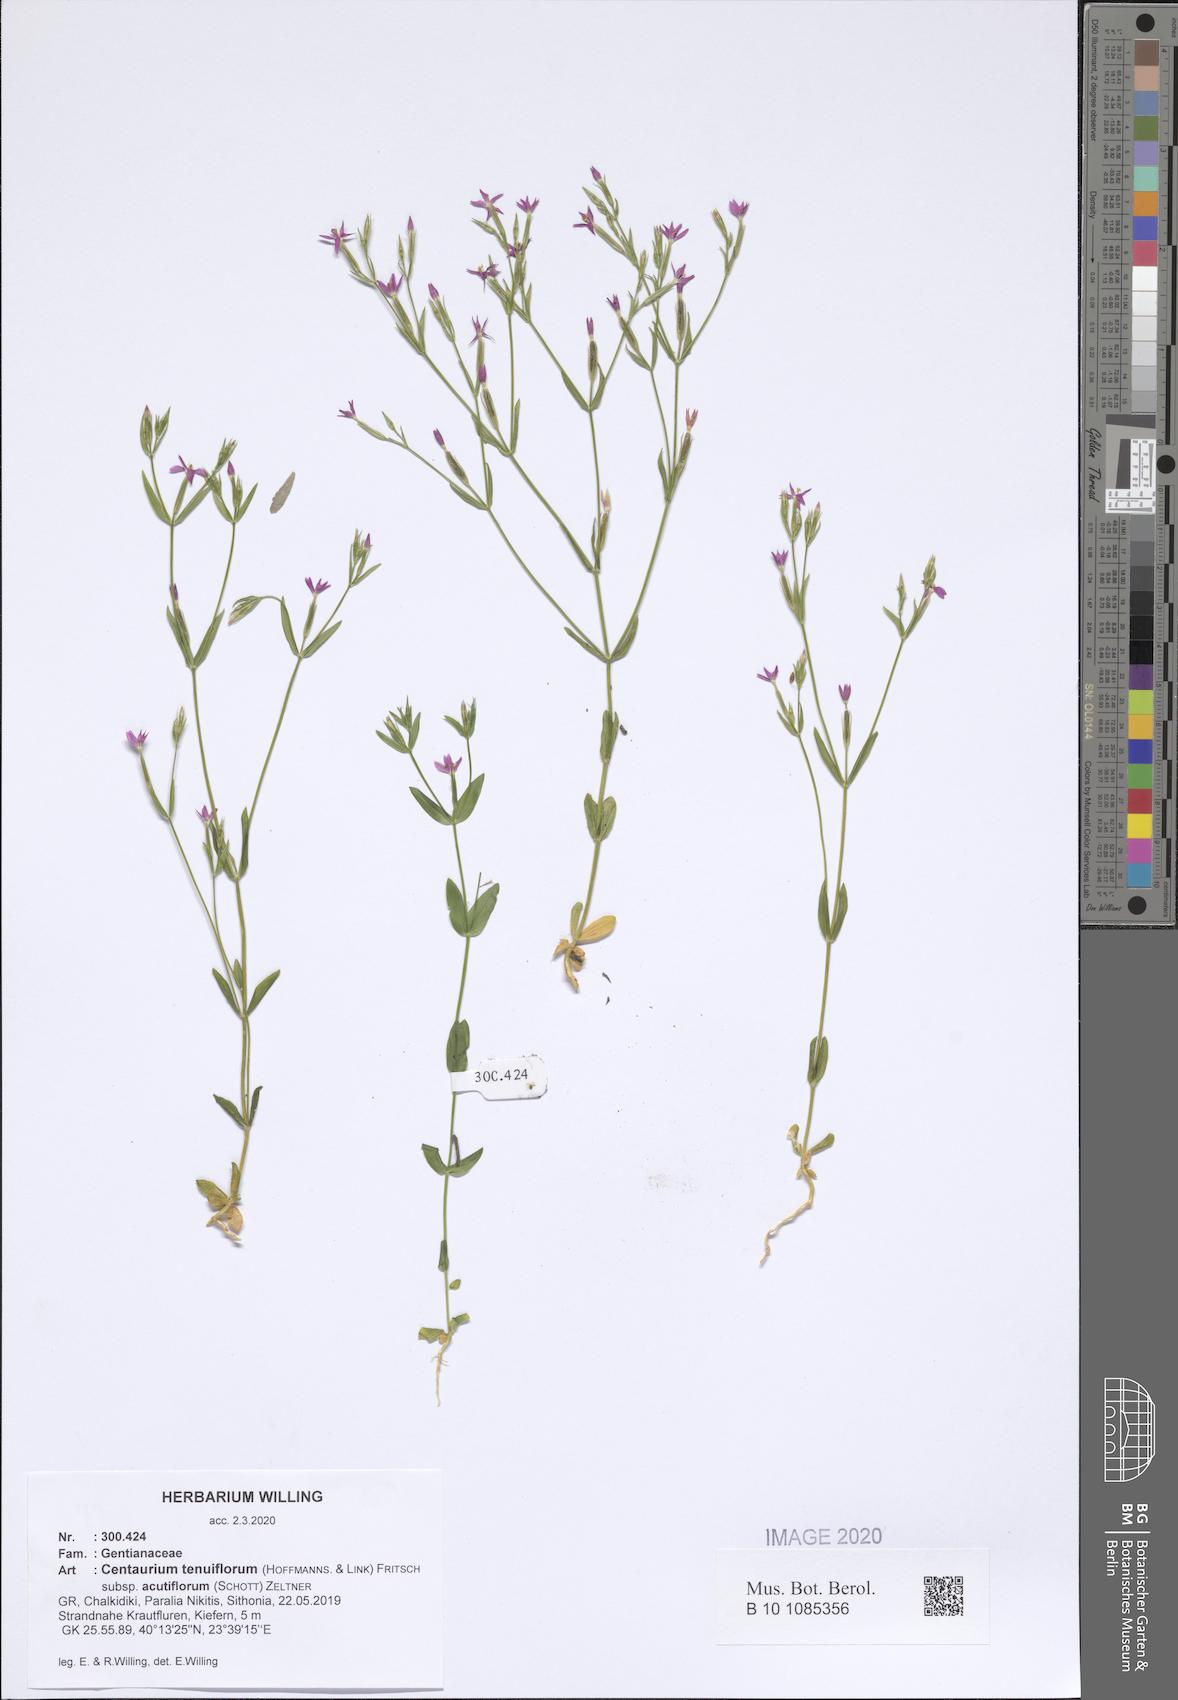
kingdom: Plantae
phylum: Tracheophyta
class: Magnoliopsida
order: Gentianales
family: Gentianaceae
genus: Centaurium
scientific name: Centaurium tenuiflorum
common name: Slender centaury
